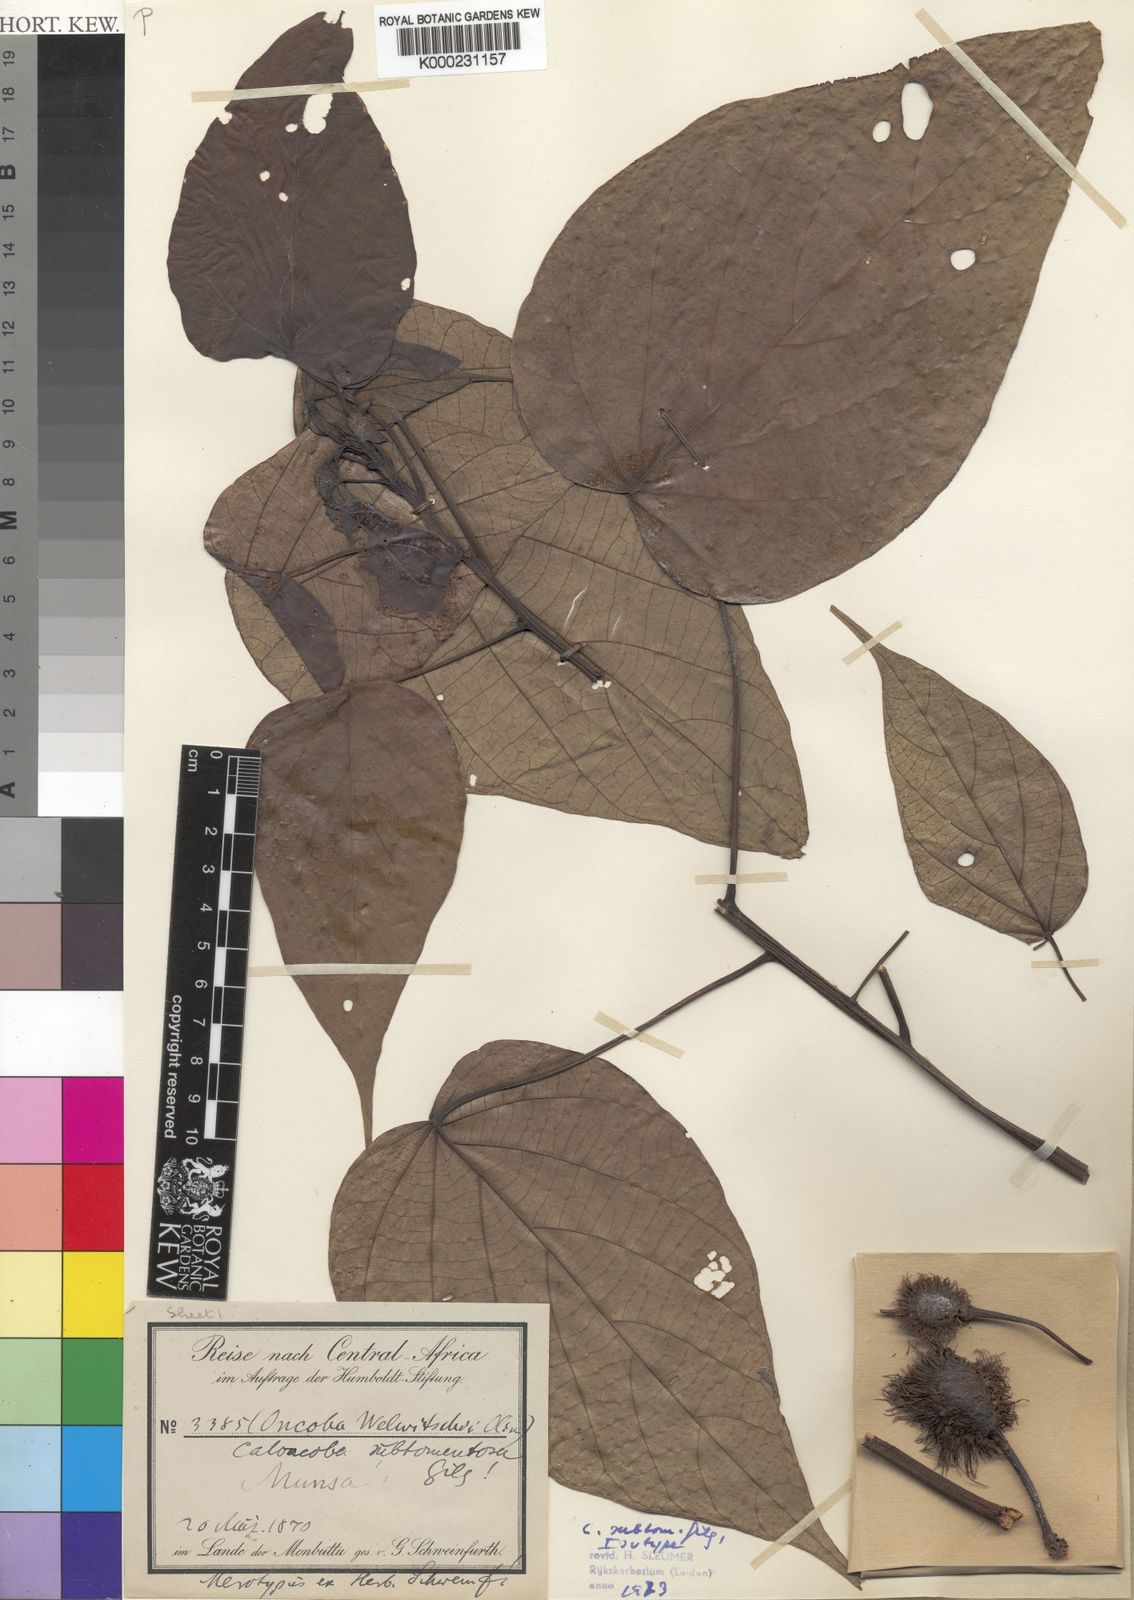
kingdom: Plantae
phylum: Tracheophyta
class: Magnoliopsida
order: Malpighiales
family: Achariaceae
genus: Caloncoba
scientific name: Caloncoba subtomentosa
